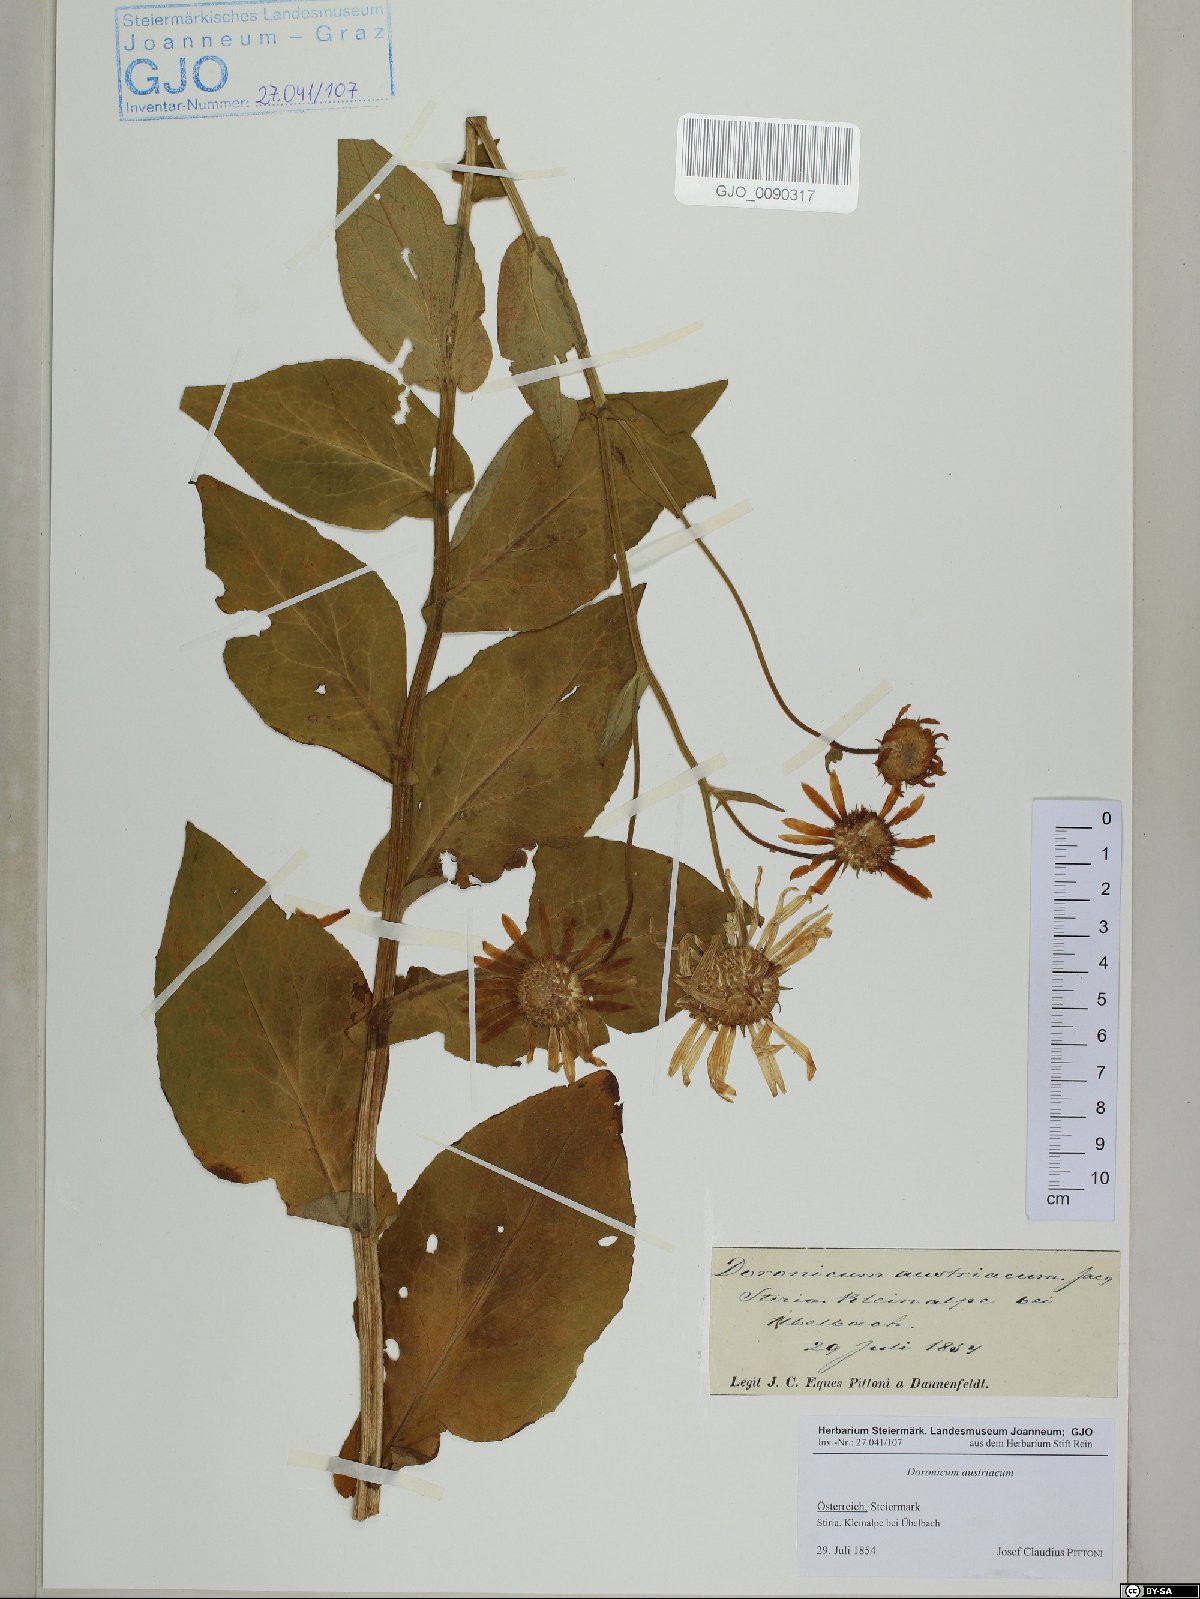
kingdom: Plantae
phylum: Tracheophyta
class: Magnoliopsida
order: Asterales
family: Asteraceae
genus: Doronicum
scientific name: Doronicum austriacum
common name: Austrian leopard's-bane
